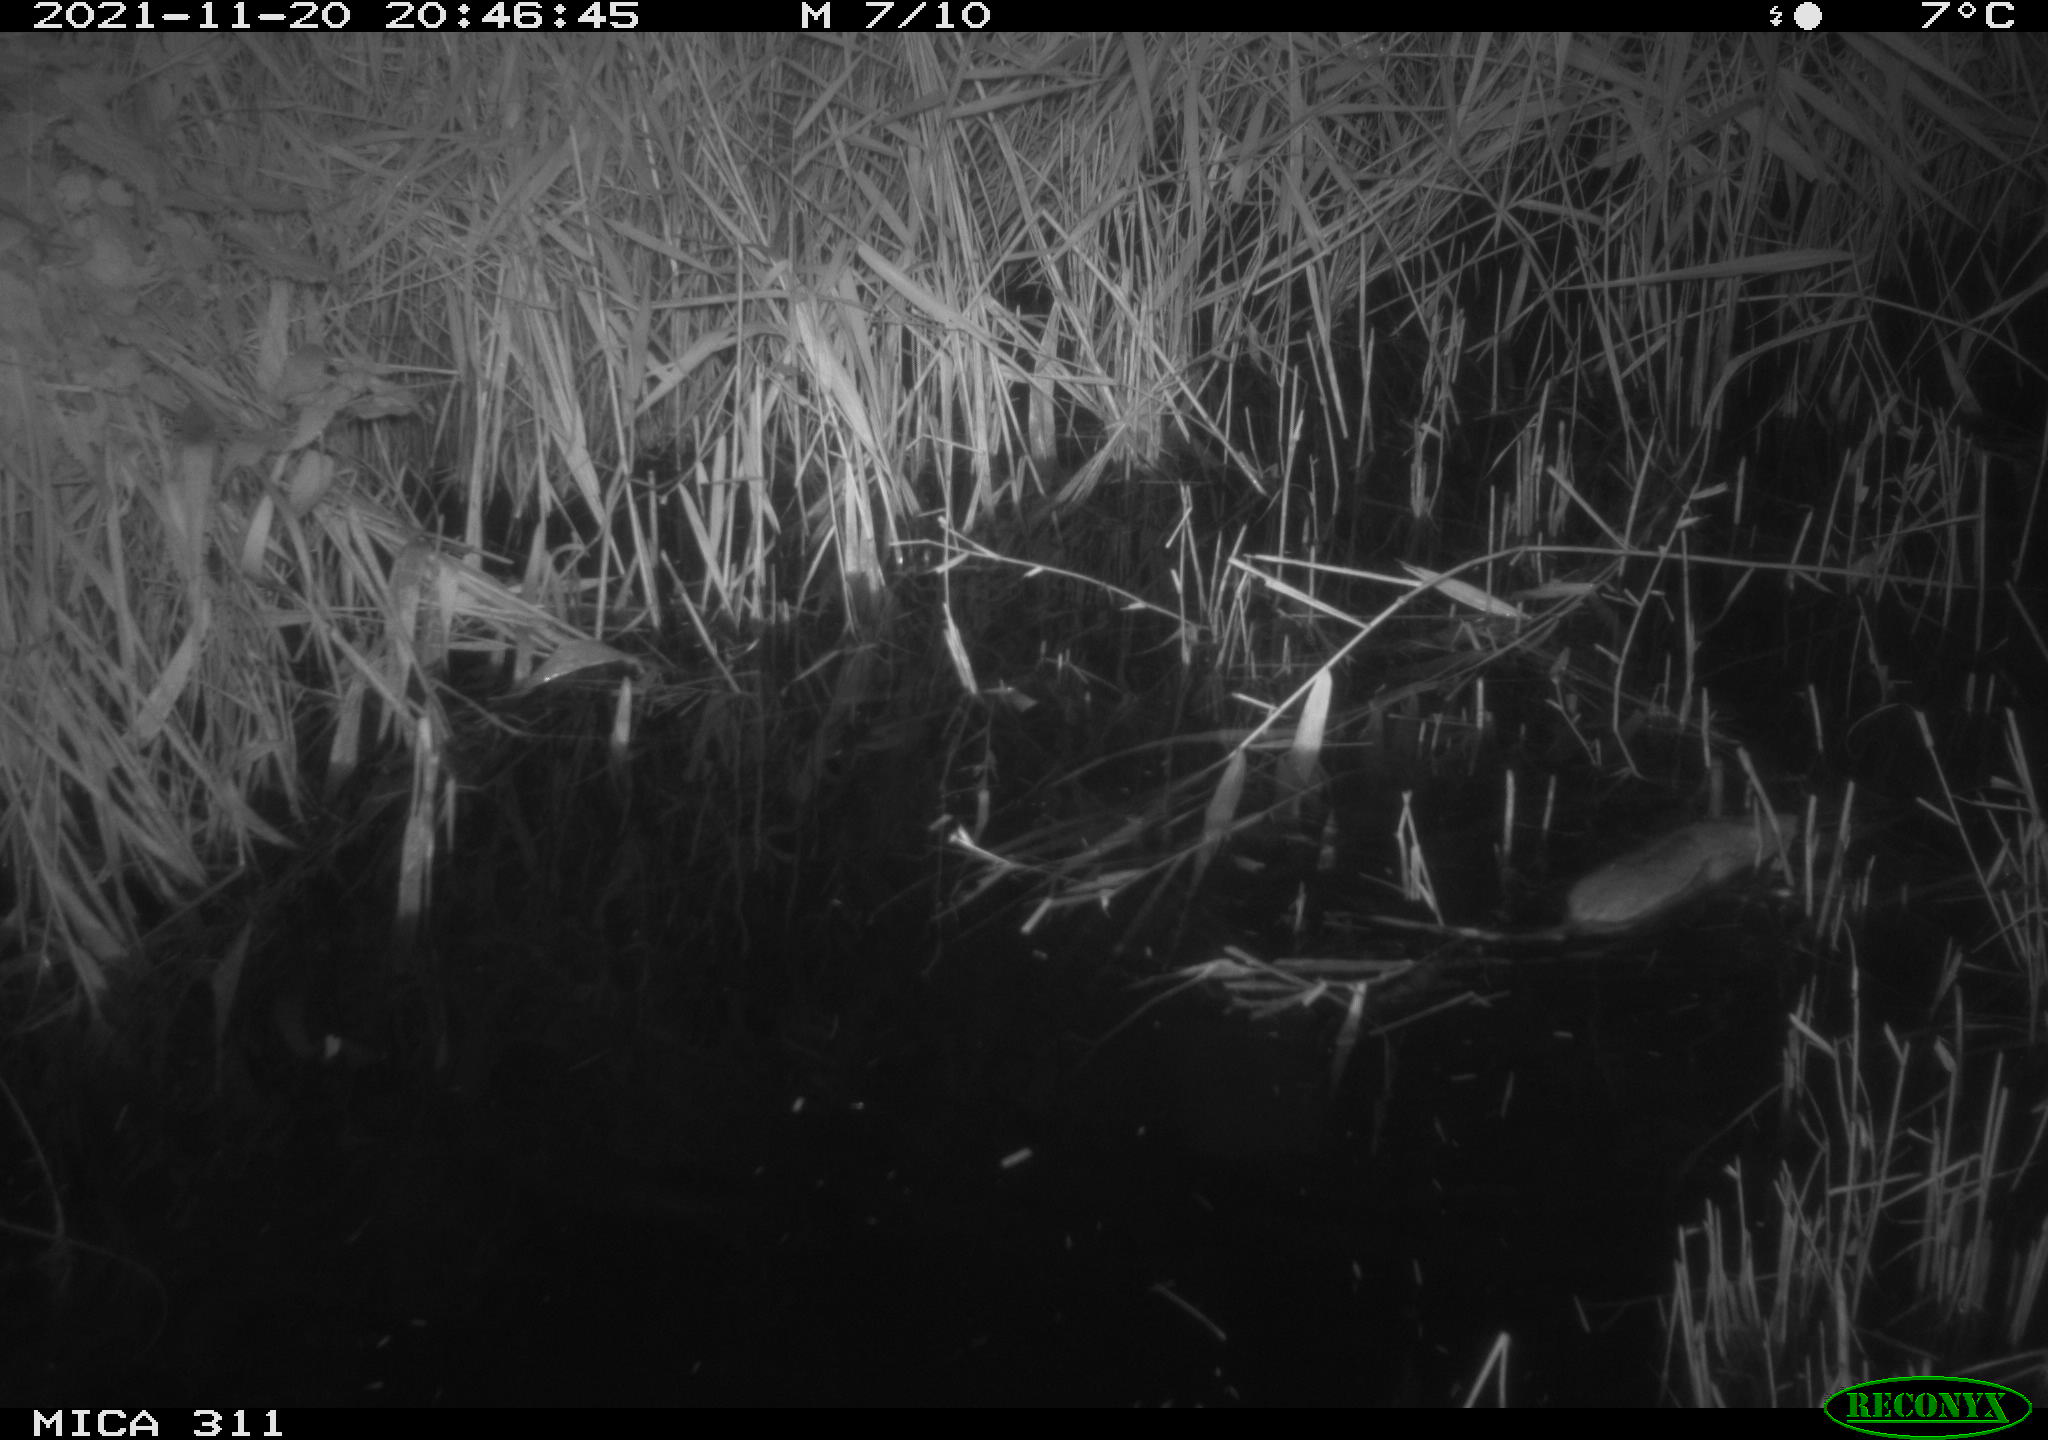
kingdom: Animalia
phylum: Chordata
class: Mammalia
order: Rodentia
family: Muridae
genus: Rattus
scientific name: Rattus norvegicus
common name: Brown rat
